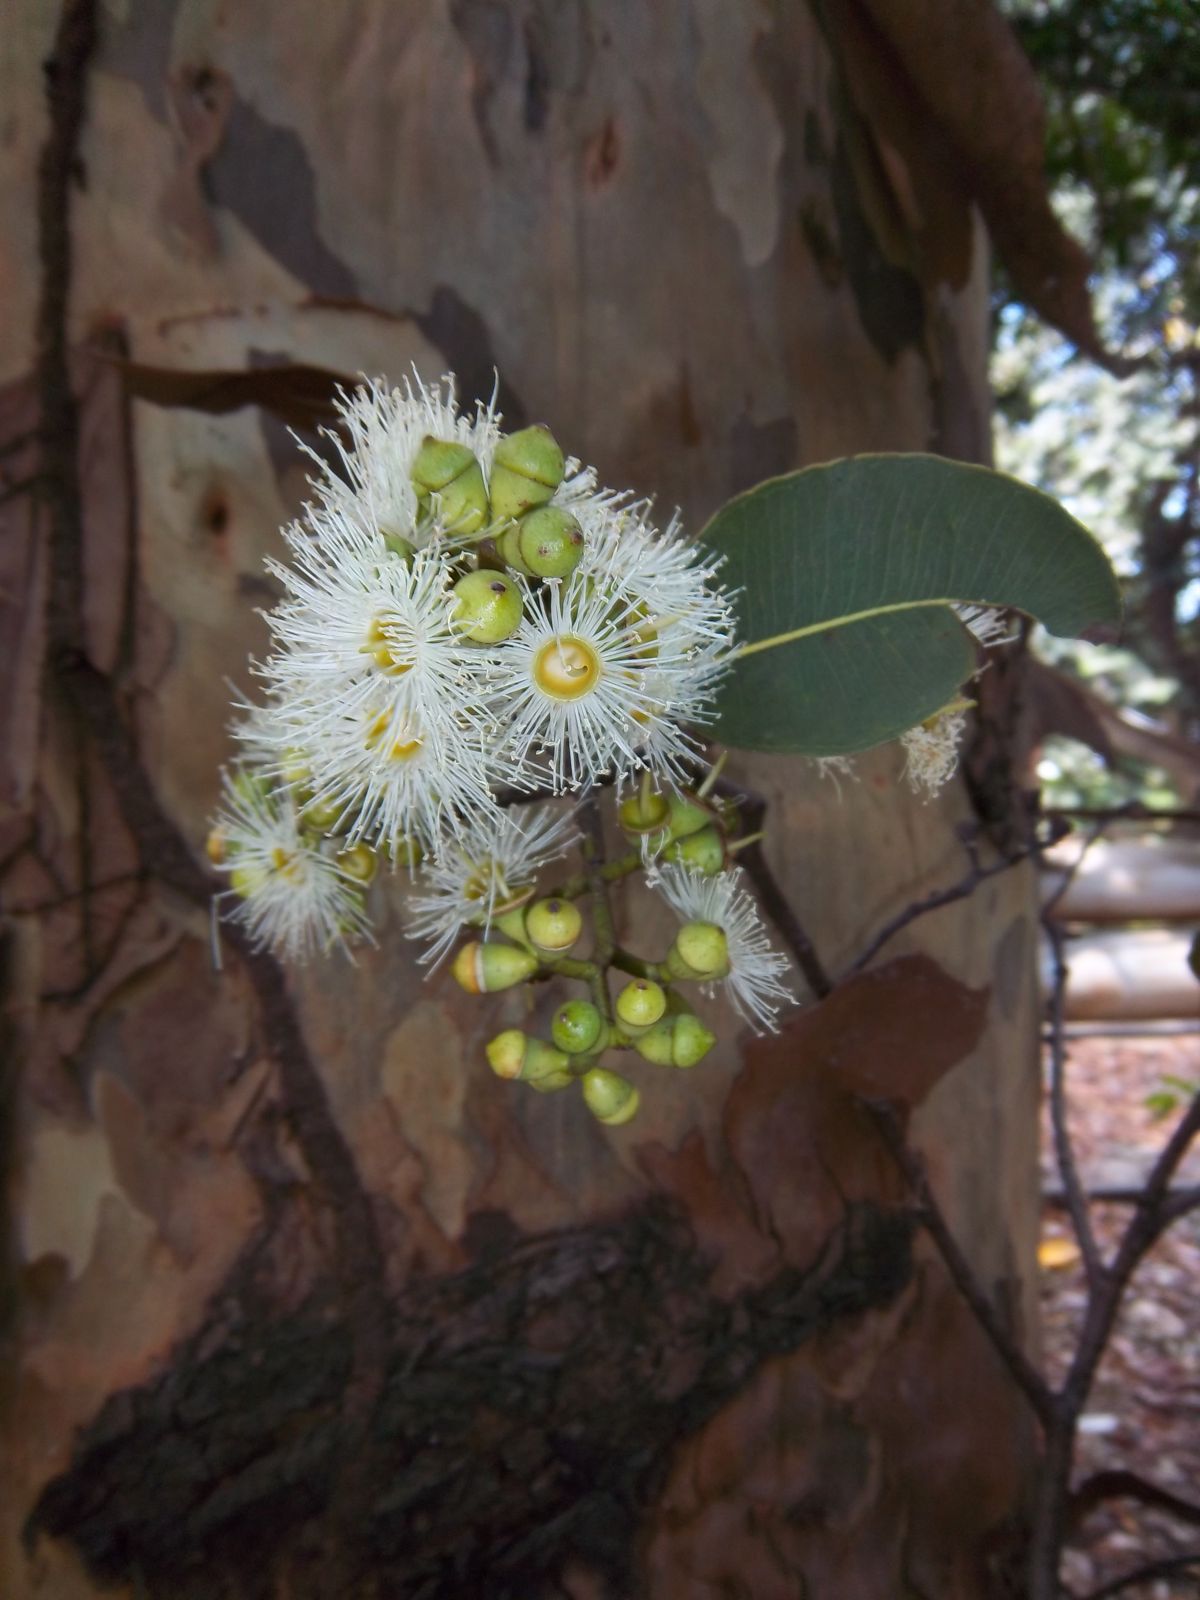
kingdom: Plantae
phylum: Tracheophyta
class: Magnoliopsida
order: Myrtales
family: Myrtaceae
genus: Corymbia
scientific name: Corymbia torelliana
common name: Cadaghi
